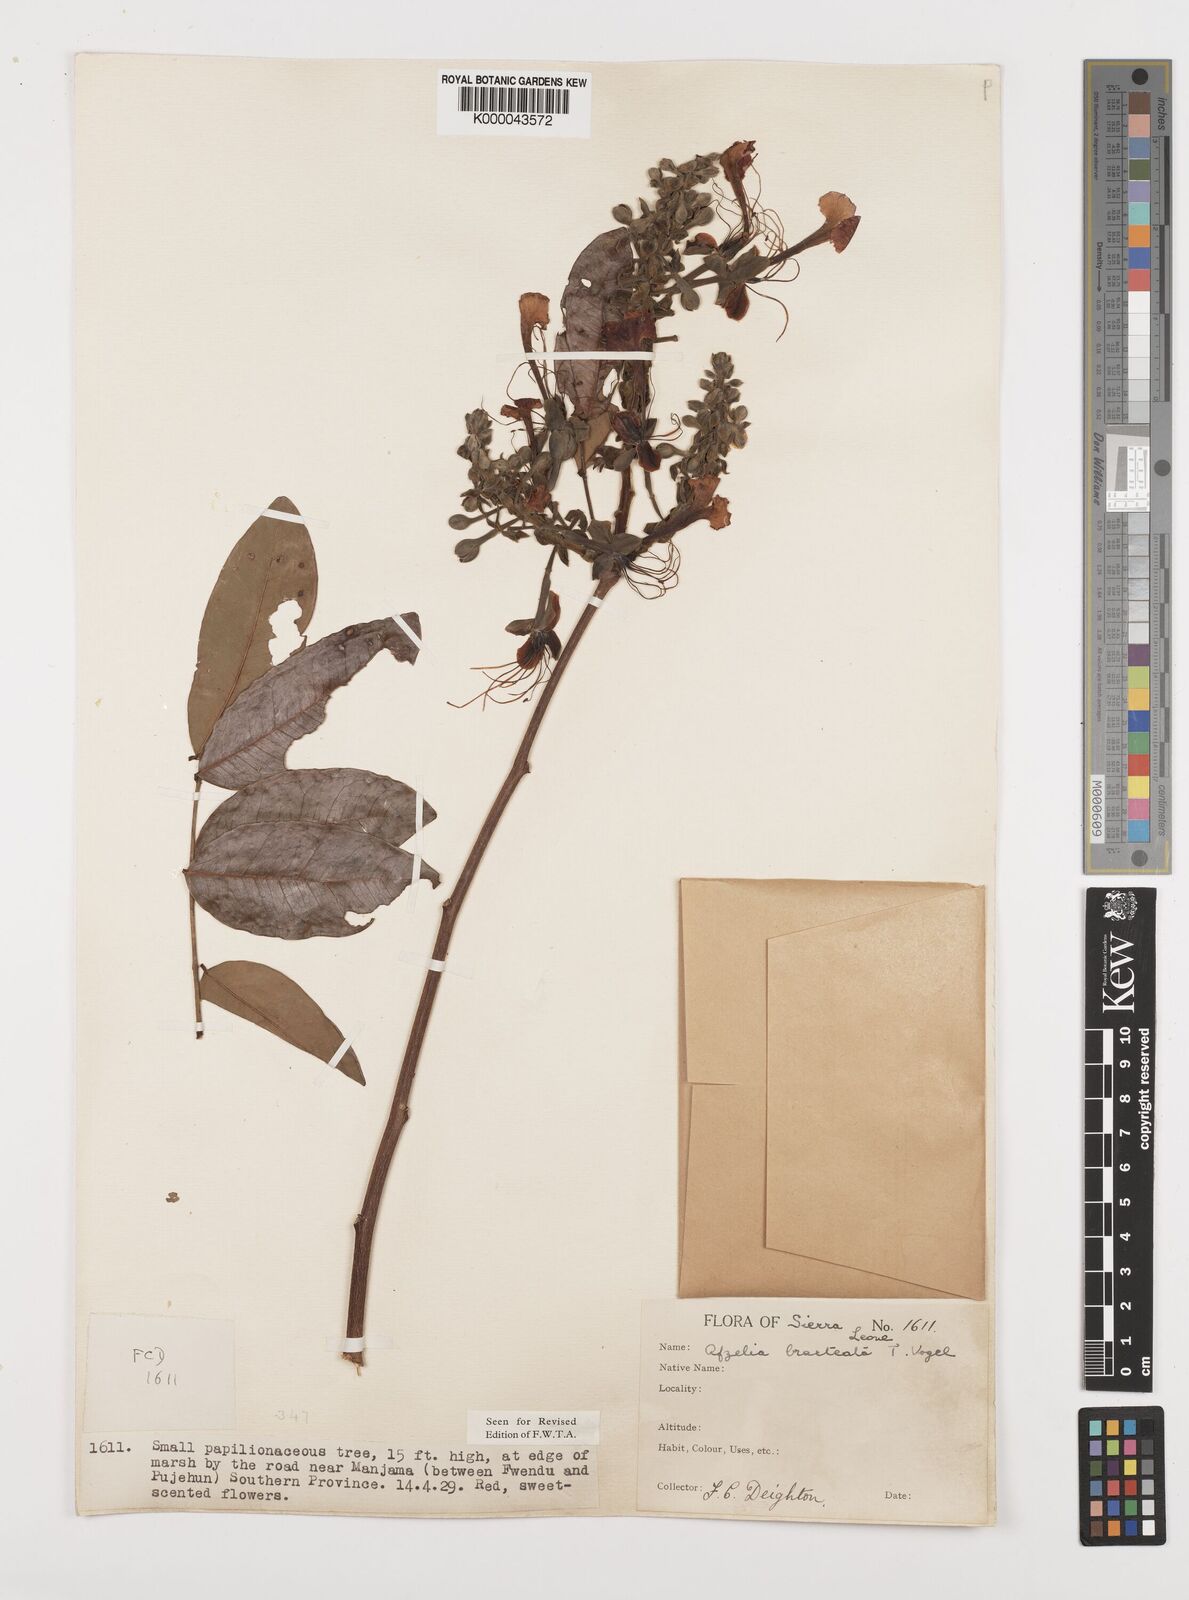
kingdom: Plantae
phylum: Tracheophyta
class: Magnoliopsida
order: Fabales
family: Fabaceae
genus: Afzelia
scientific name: Afzelia
